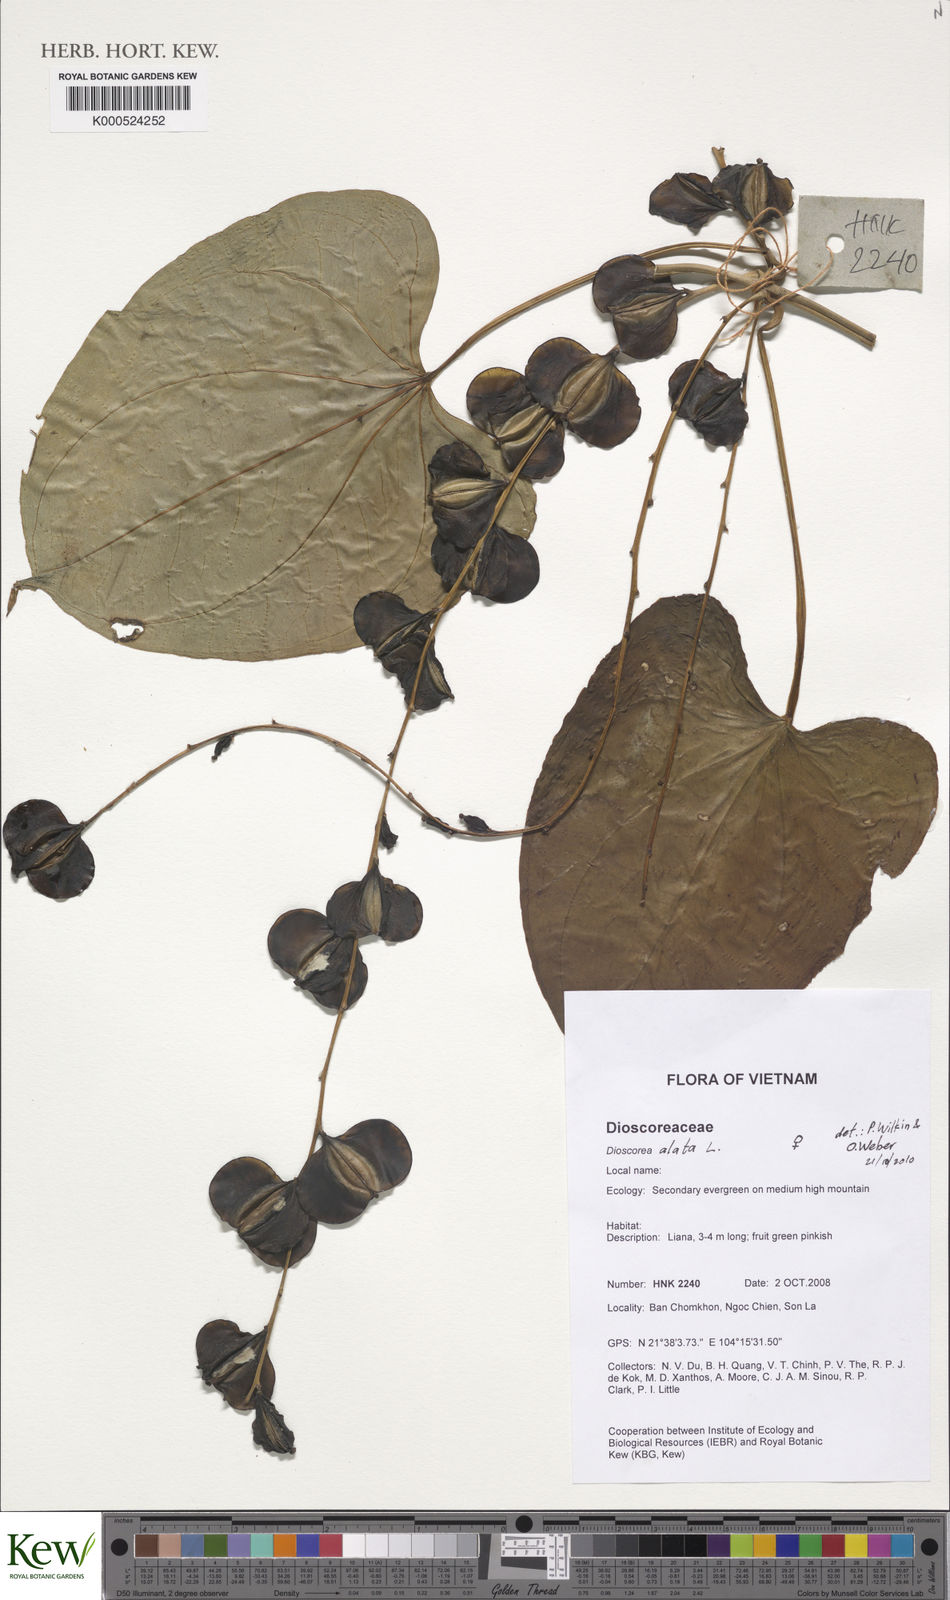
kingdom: Plantae
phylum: Tracheophyta
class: Liliopsida
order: Dioscoreales
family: Dioscoreaceae
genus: Dioscorea
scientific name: Dioscorea alata
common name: Water yam
